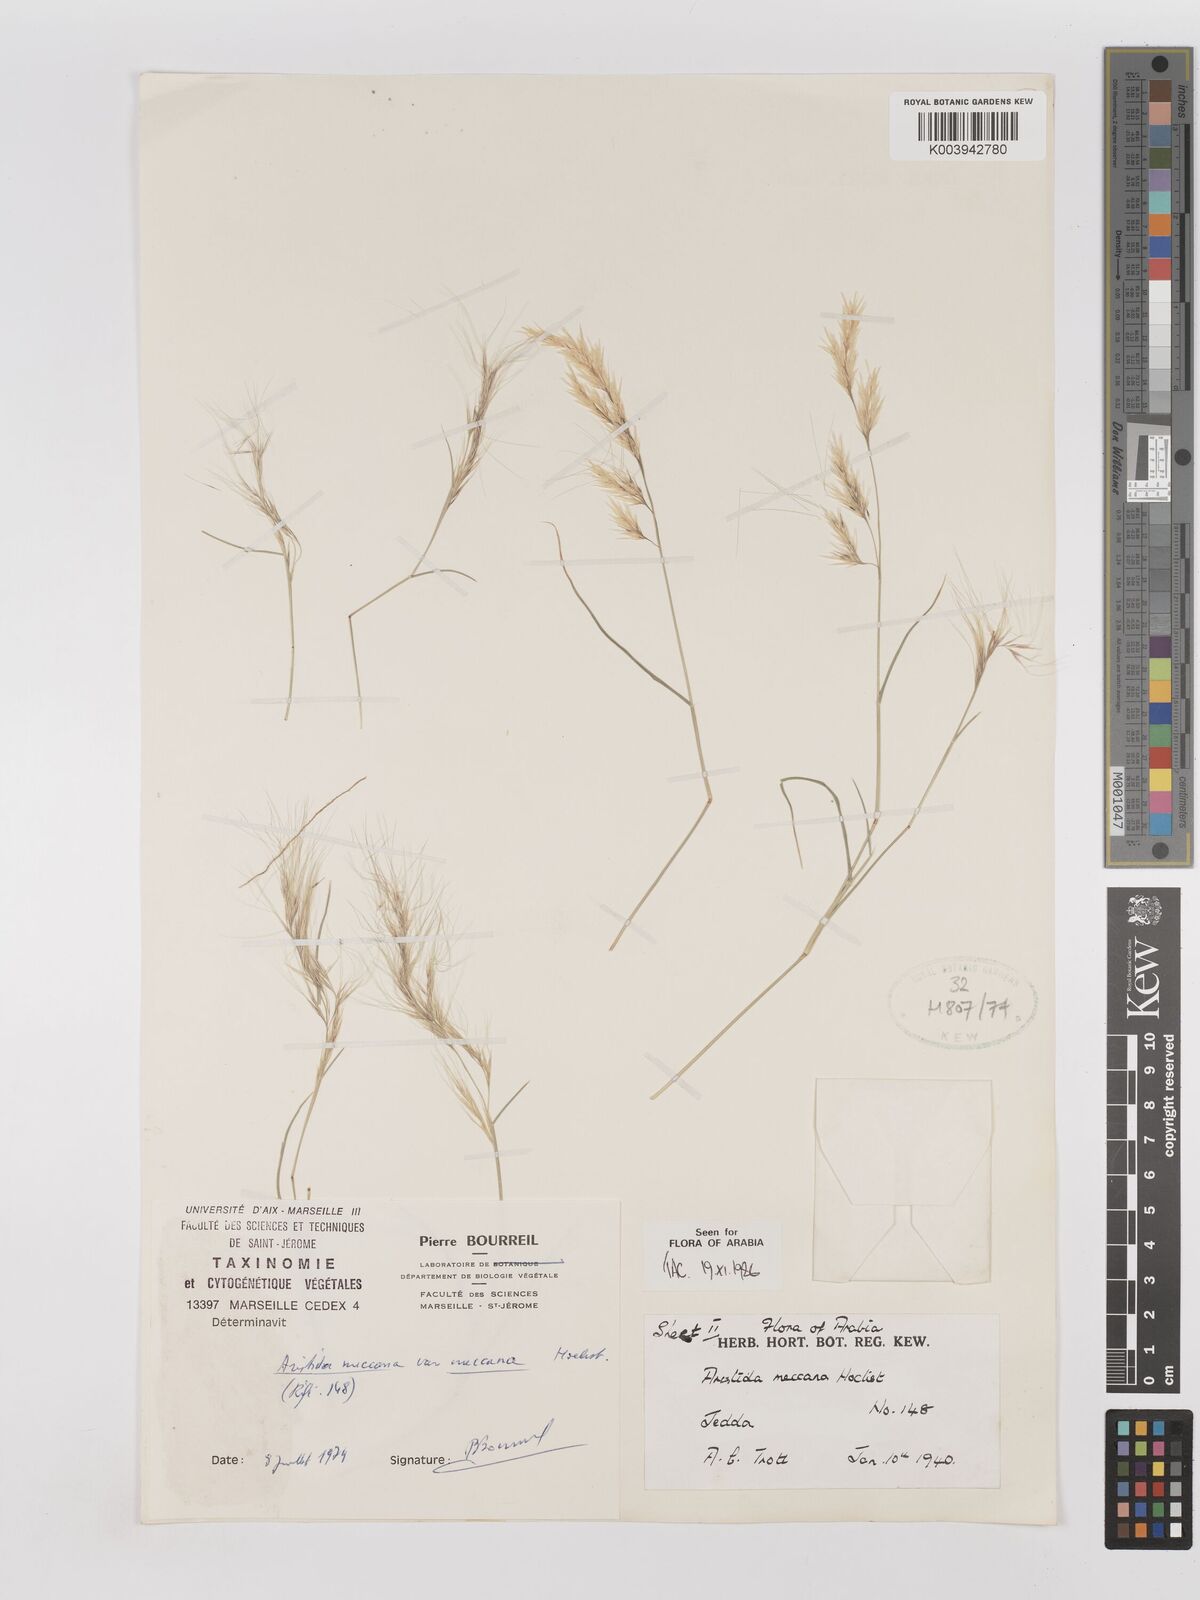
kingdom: Plantae
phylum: Tracheophyta
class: Liliopsida
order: Poales
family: Poaceae
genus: Aristida
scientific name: Aristida mutabilis
